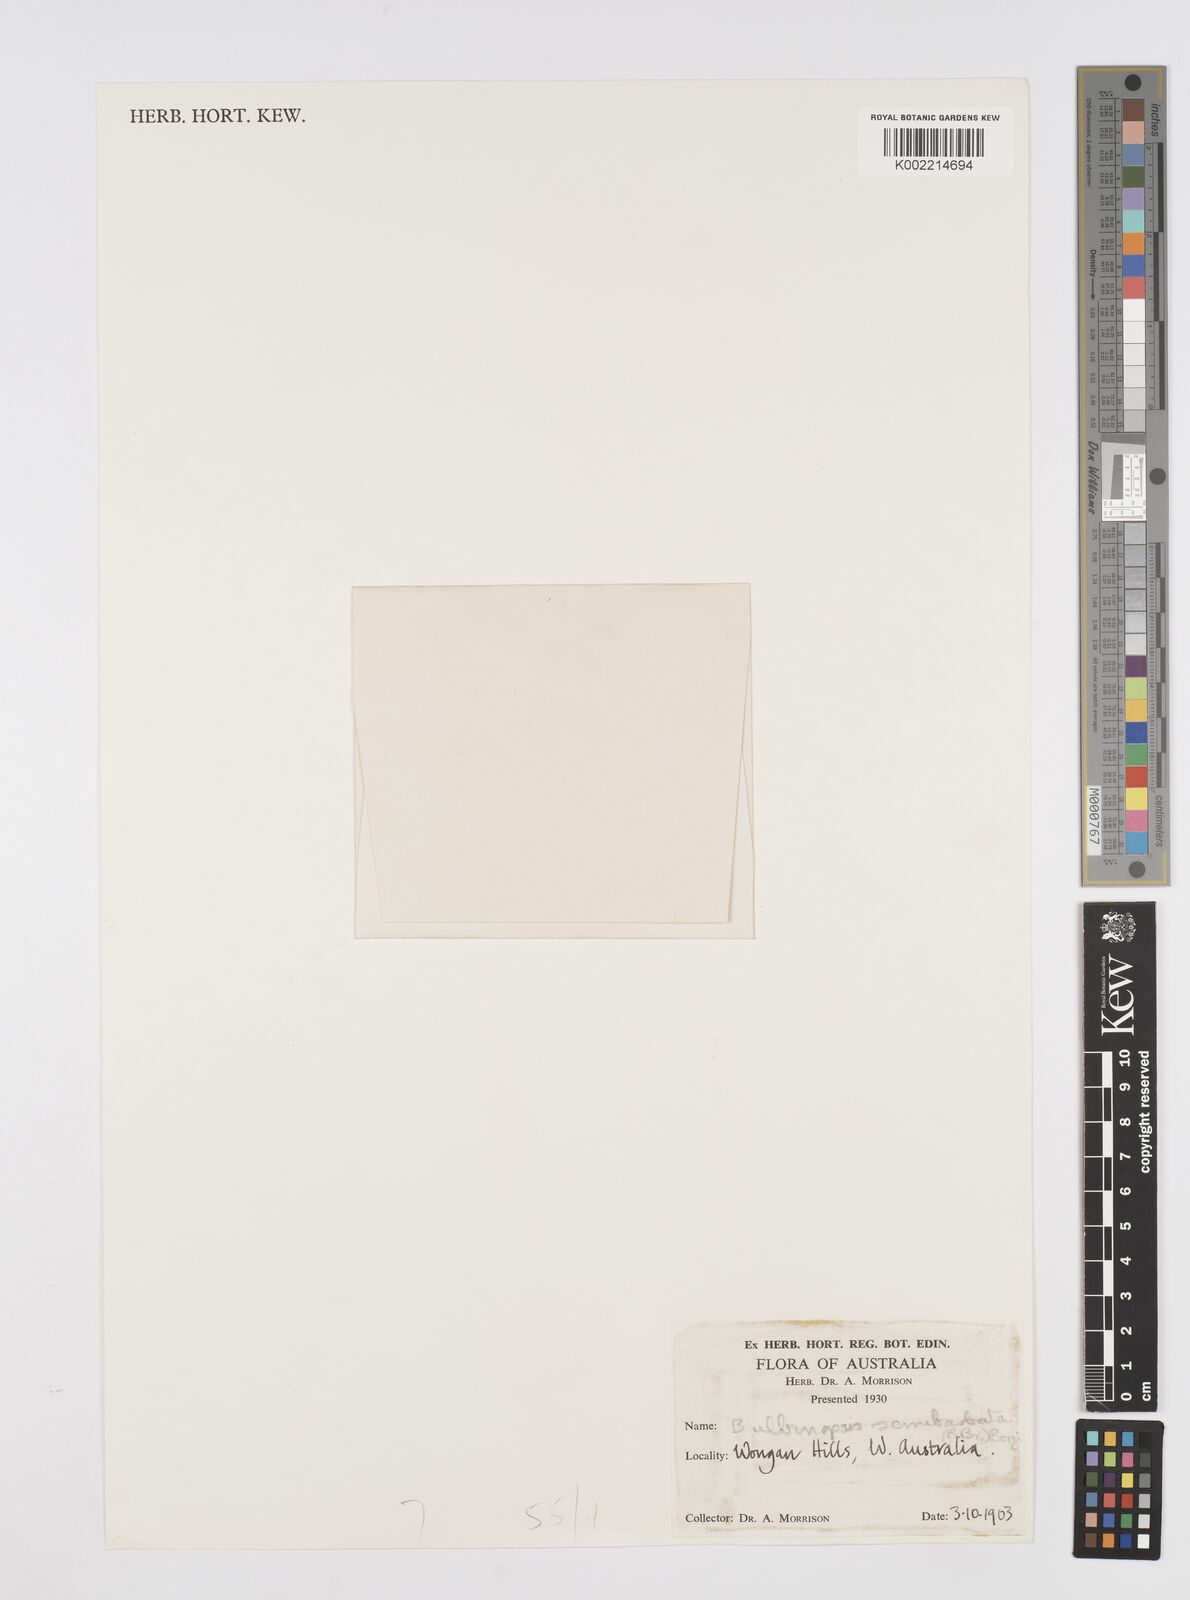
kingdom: Plantae
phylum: Tracheophyta
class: Liliopsida
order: Asparagales
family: Asphodelaceae
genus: Bulbine
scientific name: Bulbine semibarbata
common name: Leek lily
